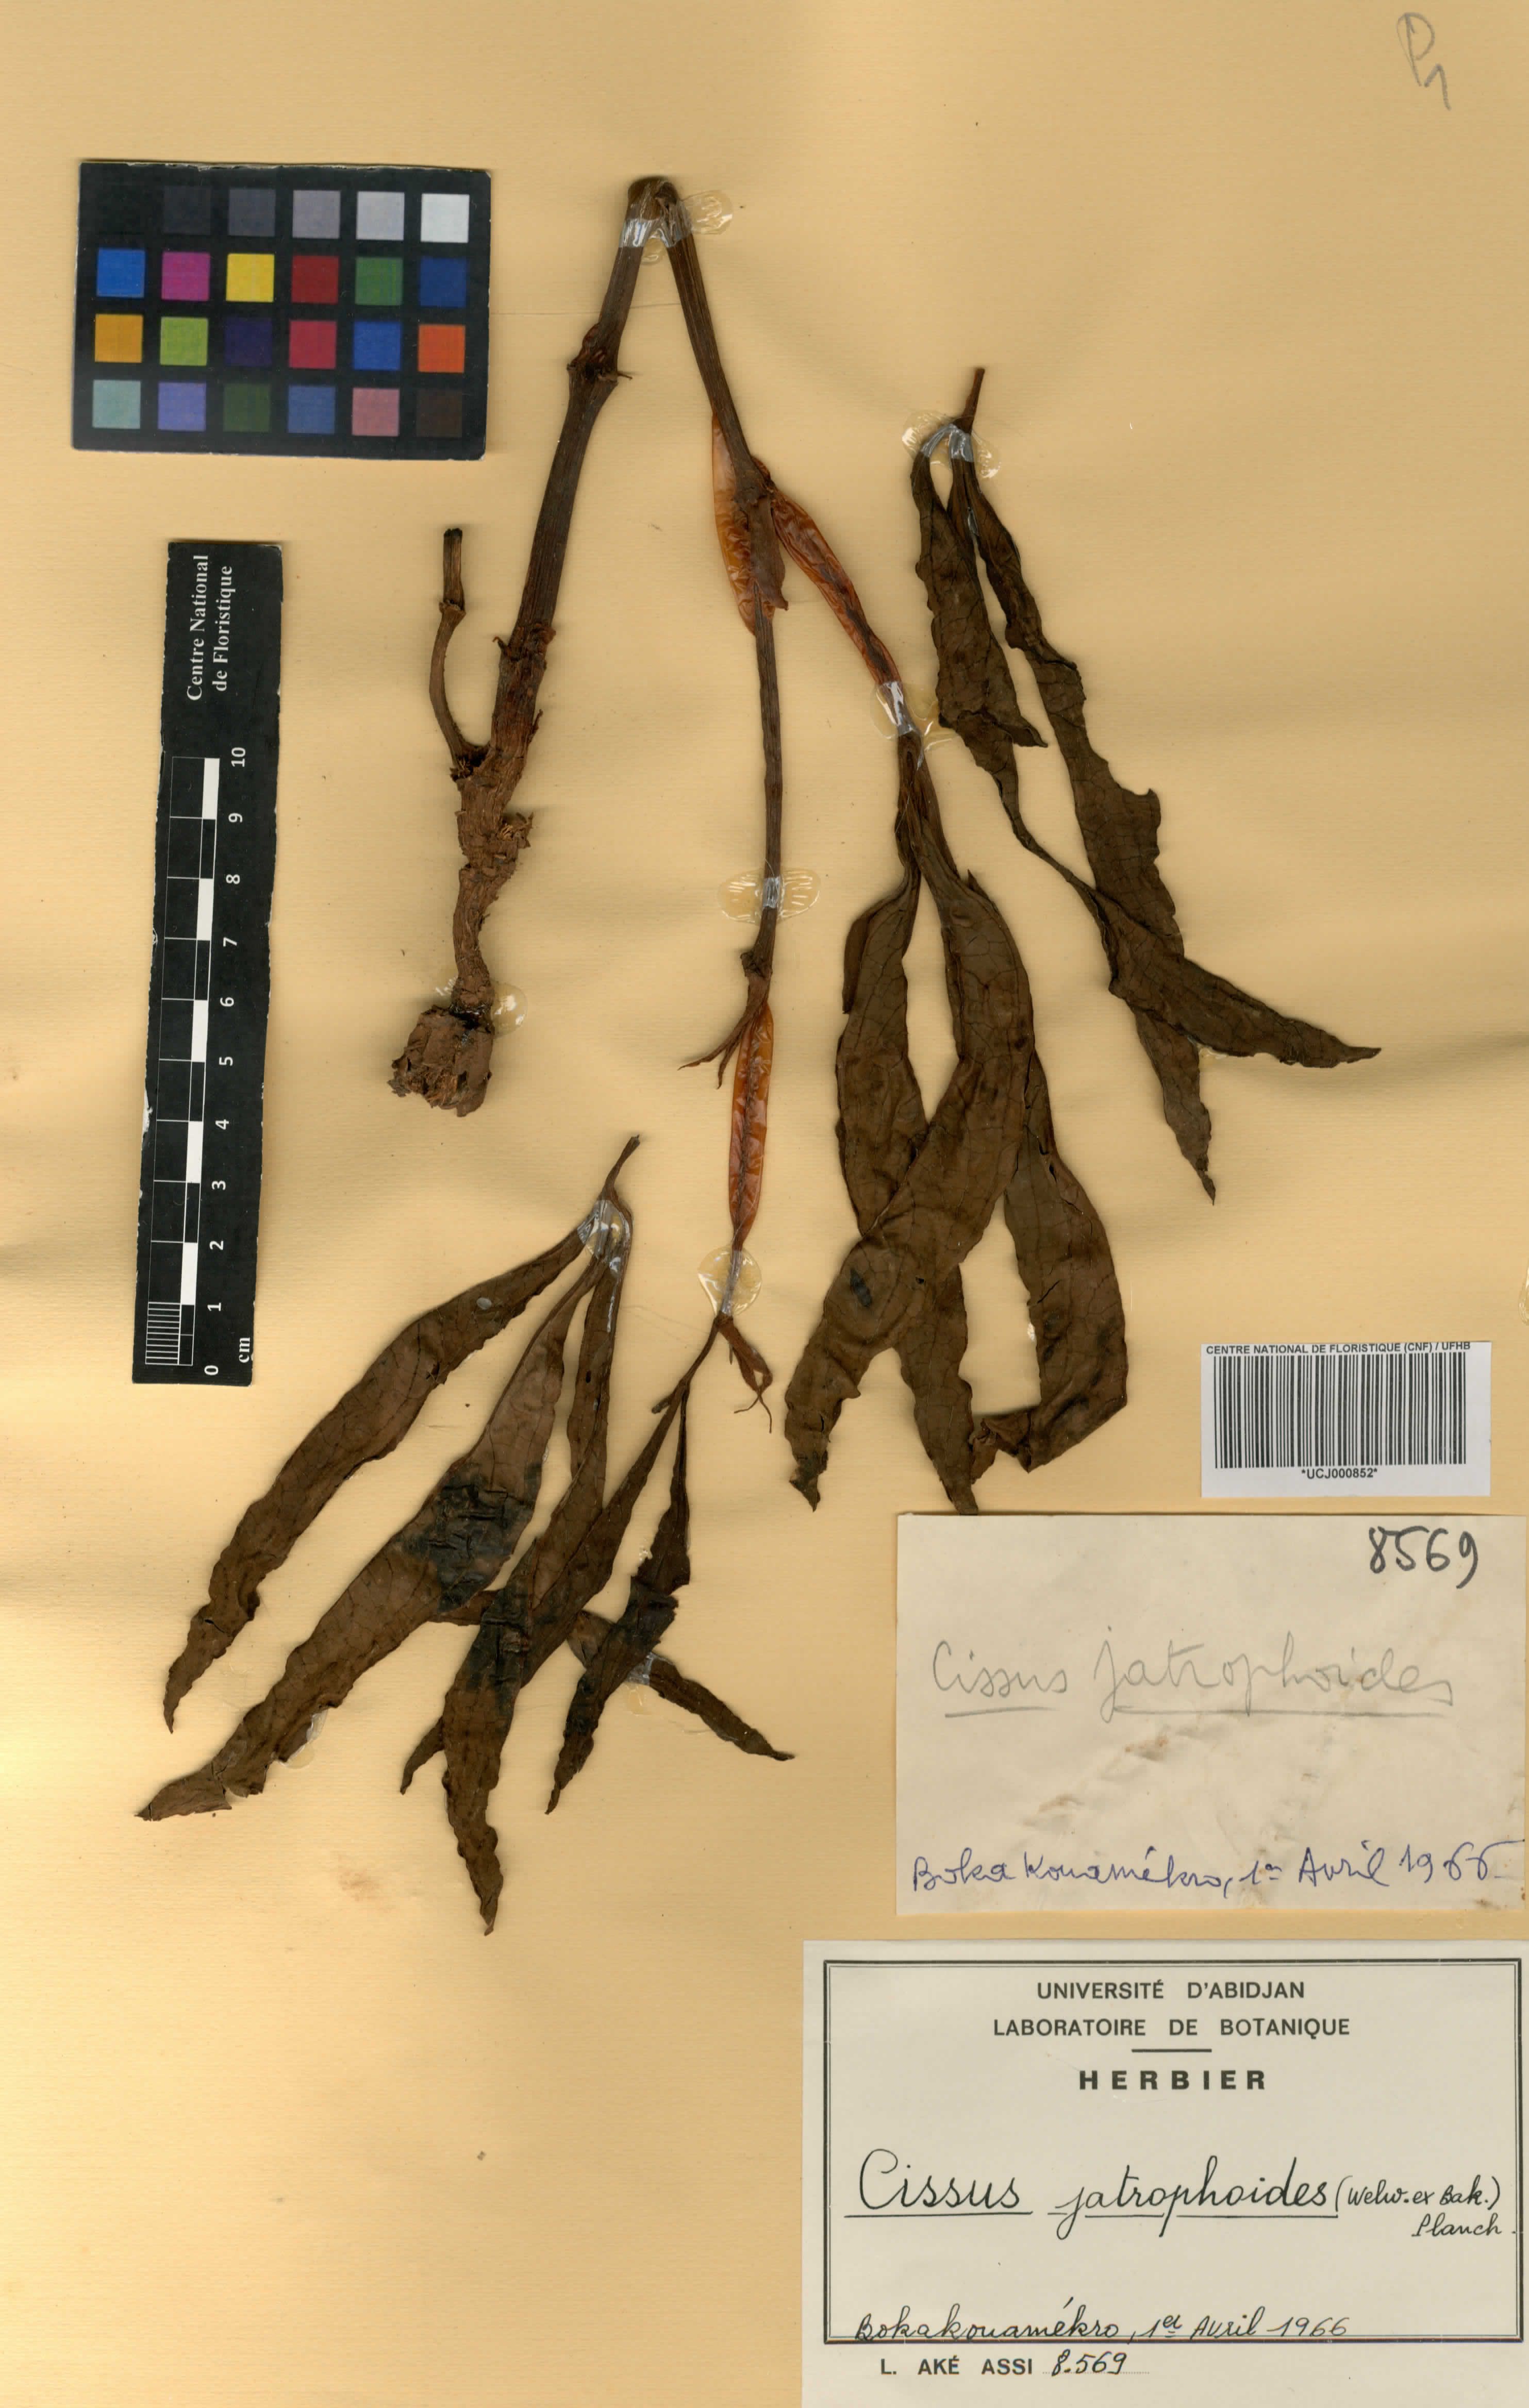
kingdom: Plantae
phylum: Tracheophyta
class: Magnoliopsida
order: Vitales
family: Vitaceae
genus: Cyphostemma
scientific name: Cyphostemma junceum
